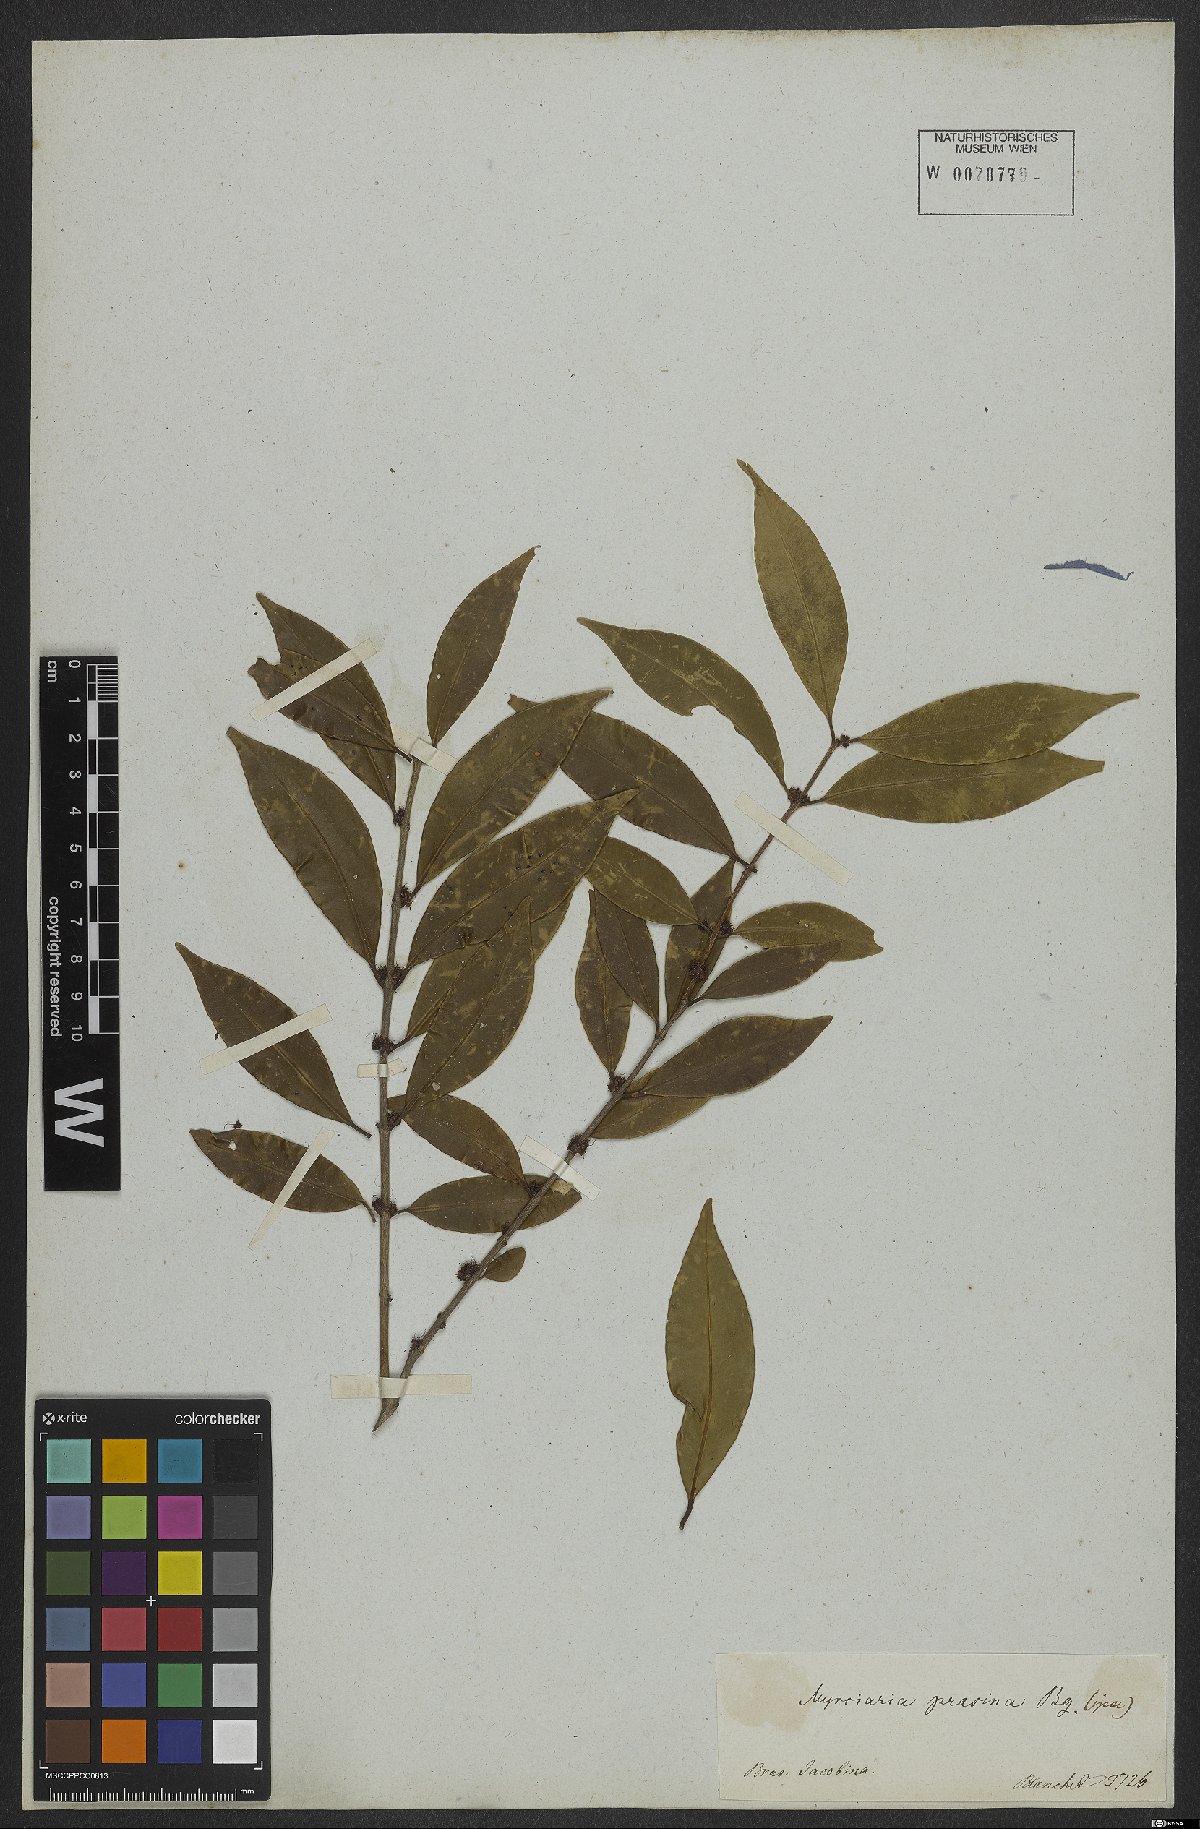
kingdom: Plantae
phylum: Tracheophyta
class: Magnoliopsida
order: Myrtales
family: Myrtaceae
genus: Myrciaria
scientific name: Myrciaria floribunda
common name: Guavaberry
